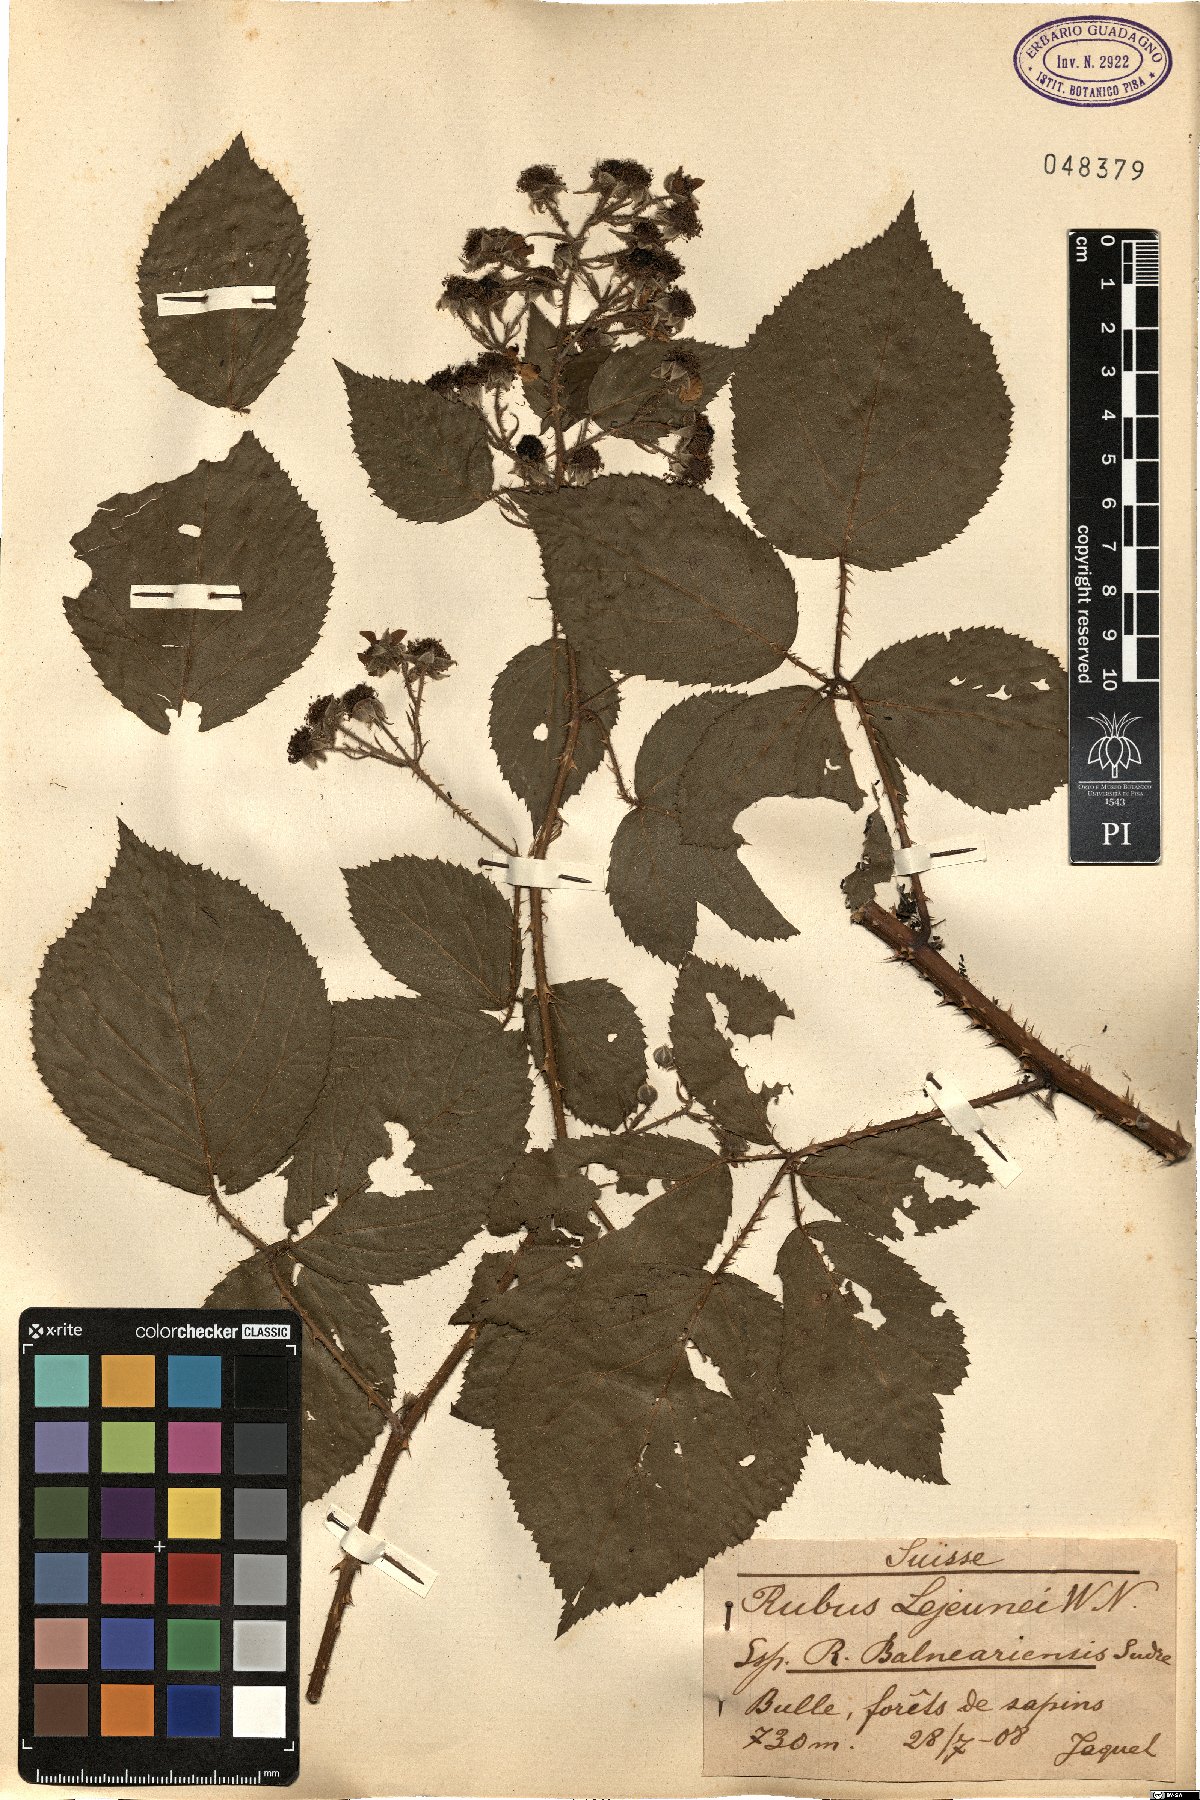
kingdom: Plantae
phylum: Tracheophyta
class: Magnoliopsida
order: Rosales
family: Rosaceae
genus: Rubus
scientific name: Rubus promachonicus
